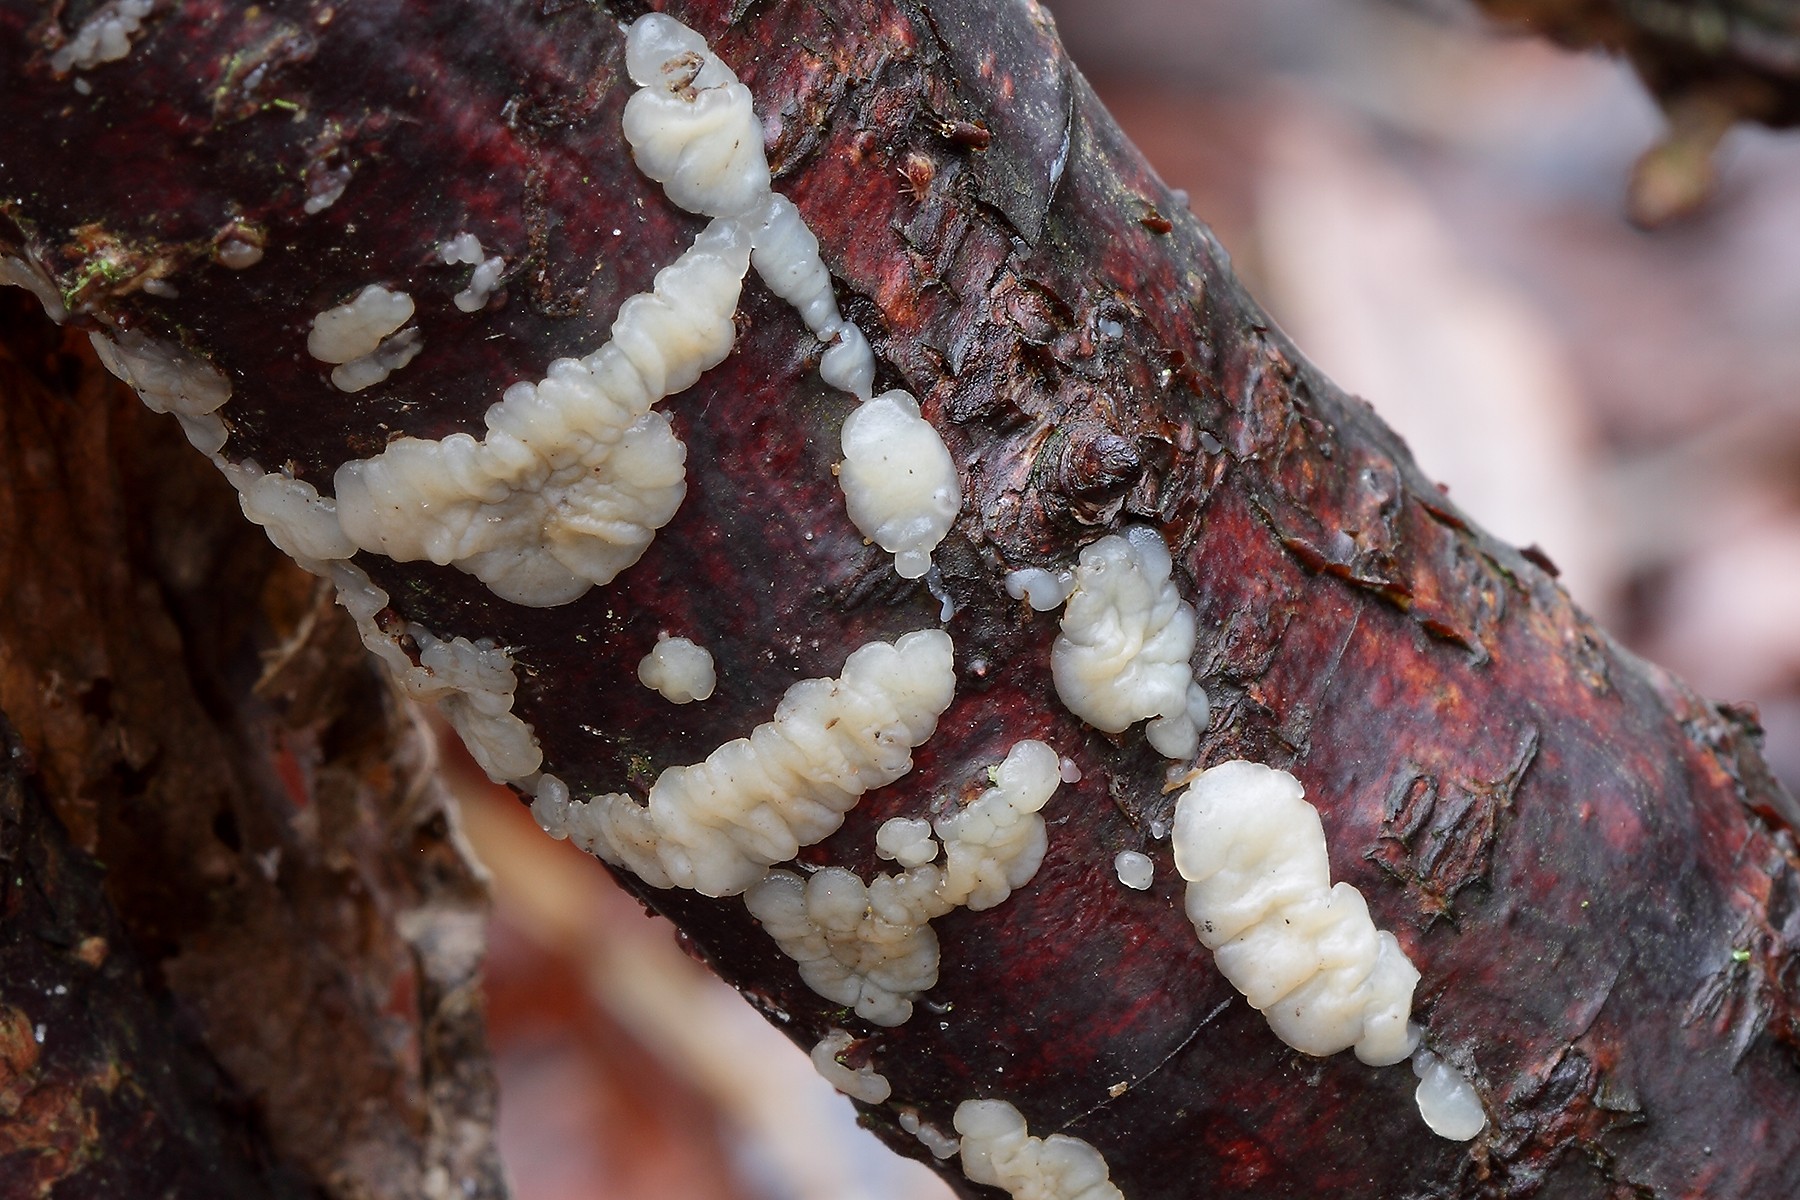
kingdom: Fungi
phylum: Basidiomycota
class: Agaricomycetes
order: Auriculariales
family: Auriculariaceae
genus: Exidia
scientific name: Exidia thuretiana
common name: hvidlig bævretop
